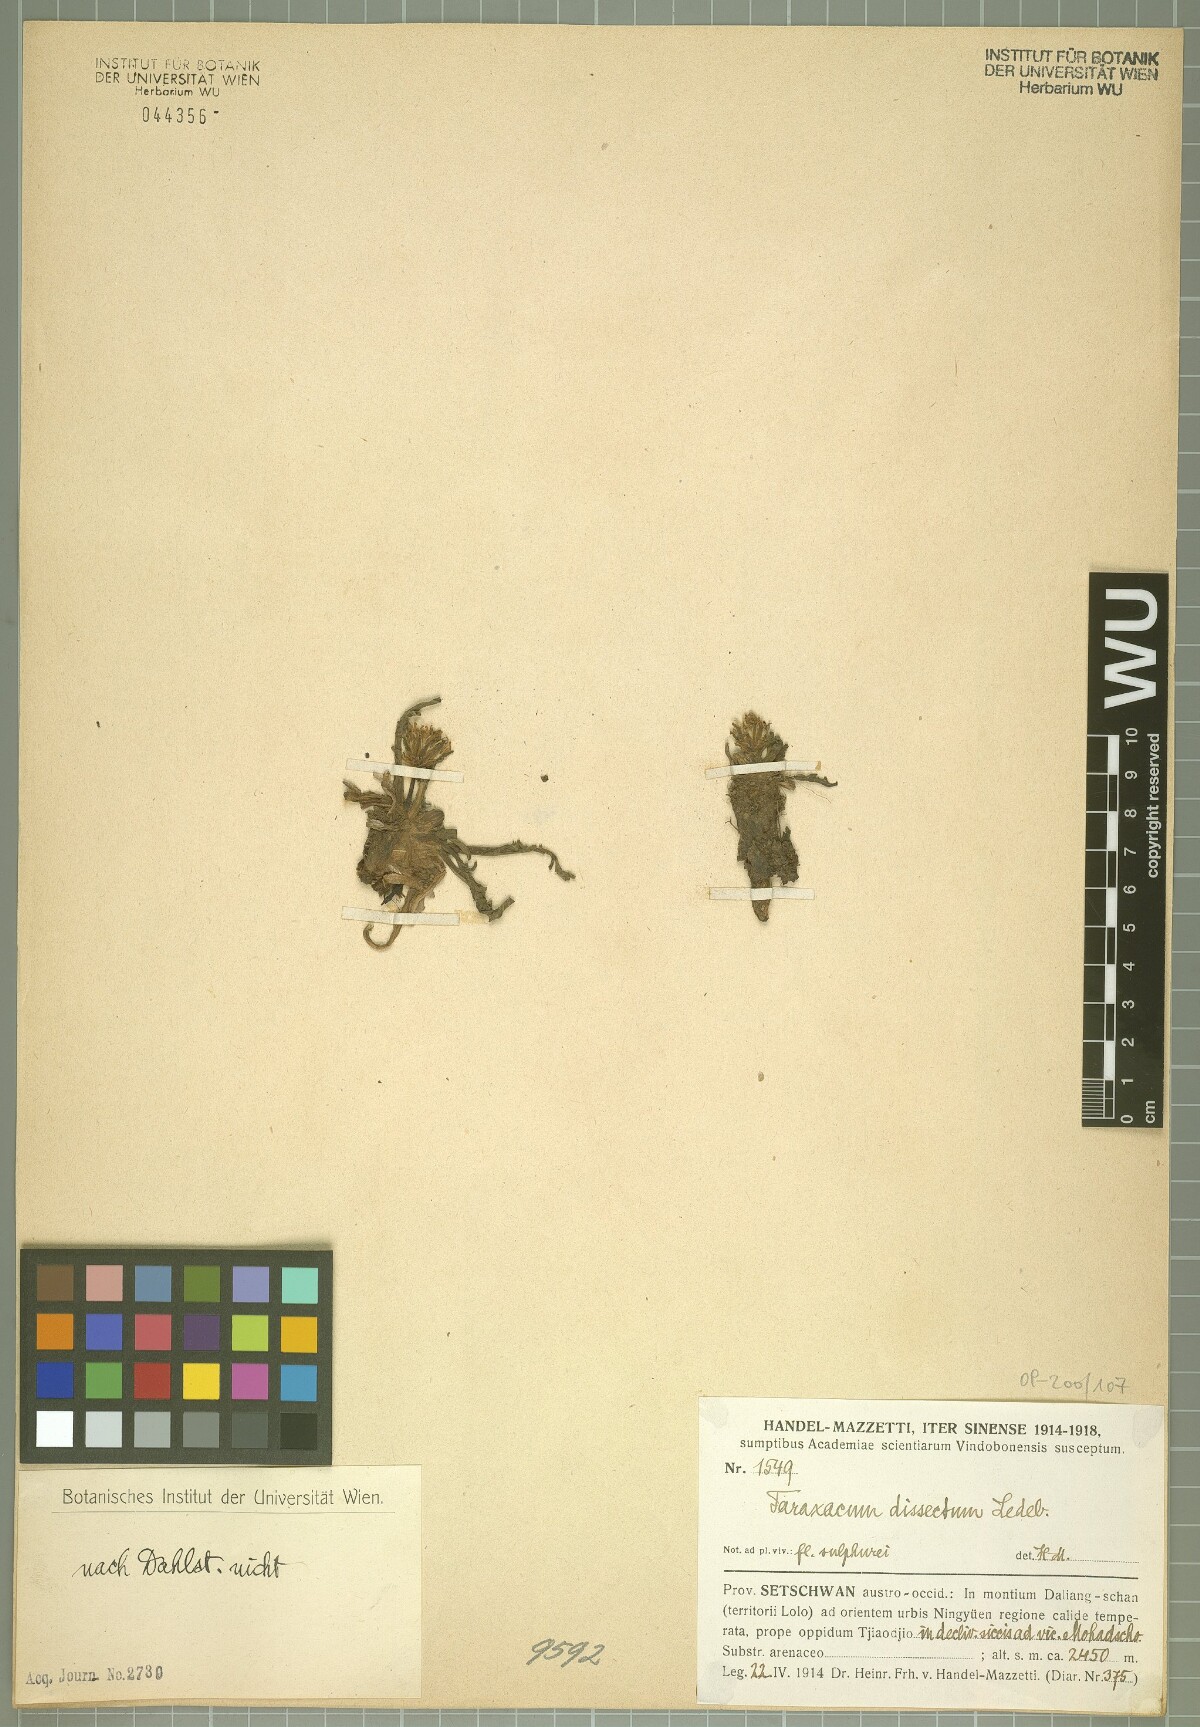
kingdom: Plantae
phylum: Tracheophyta
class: Magnoliopsida
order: Asterales
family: Asteraceae
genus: Taraxacum
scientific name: Taraxacum dissectum
